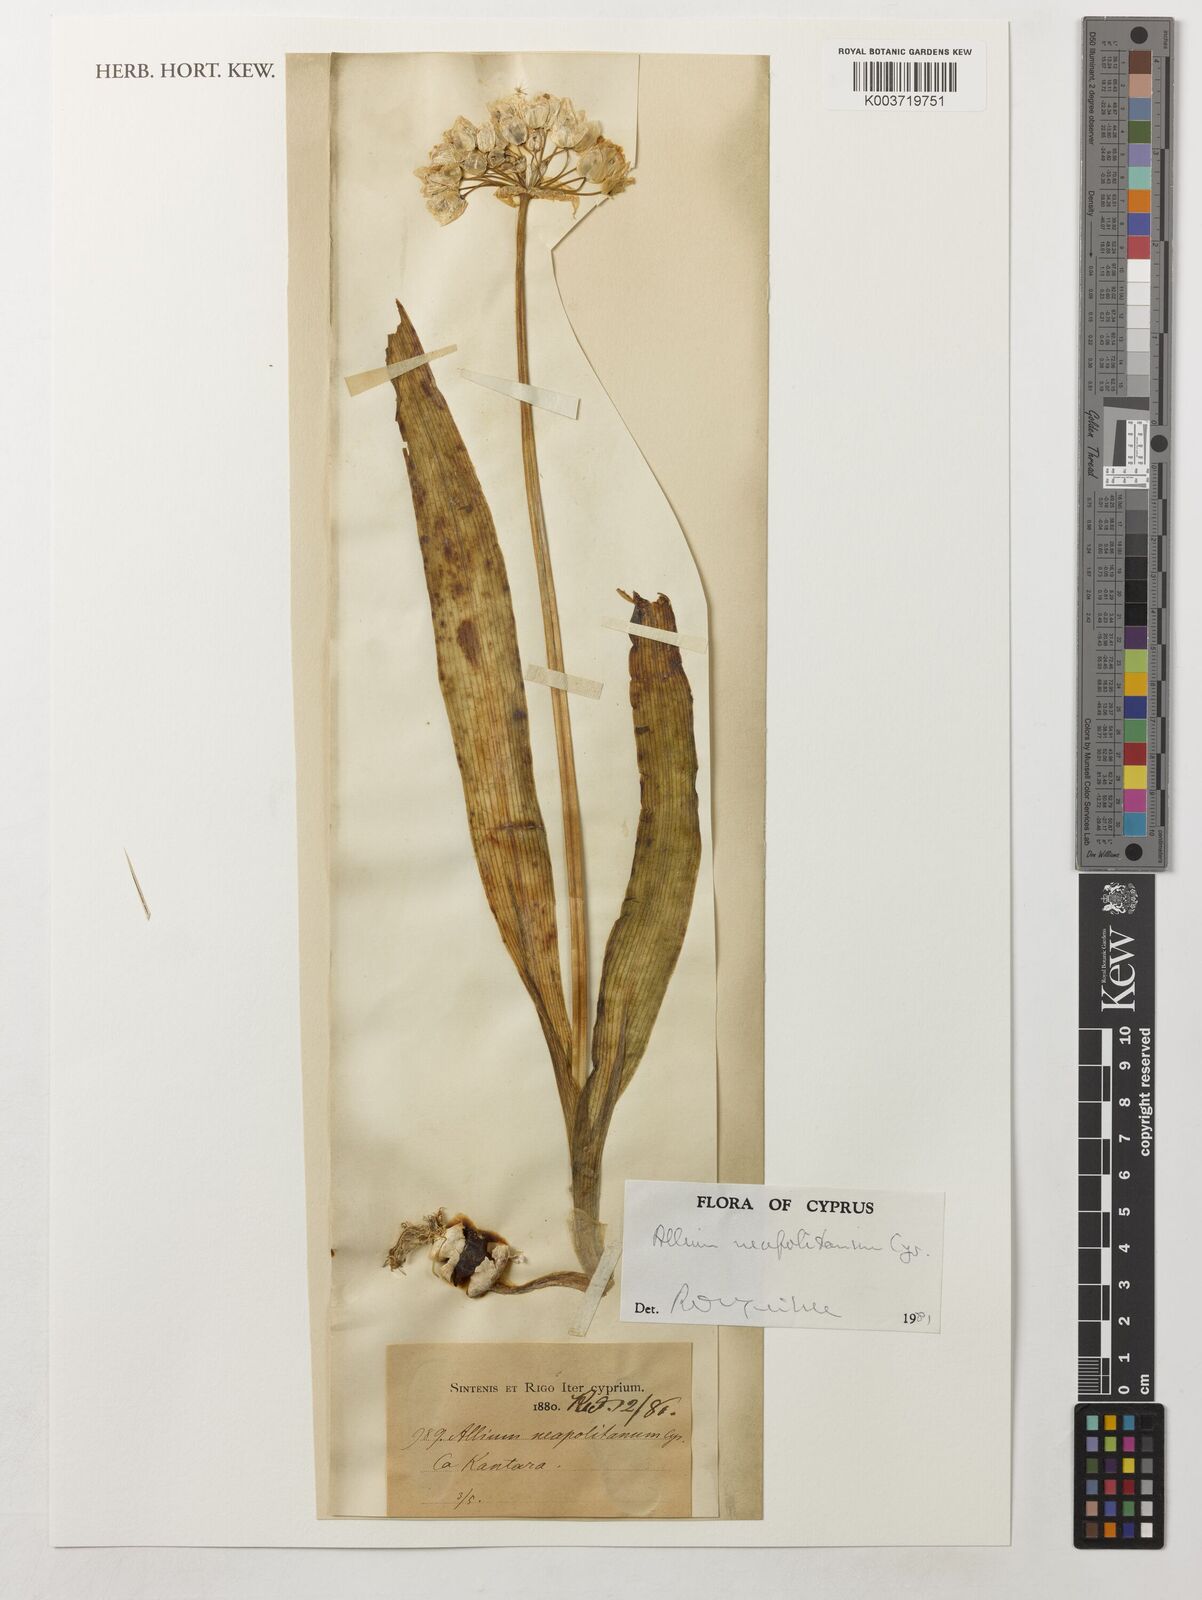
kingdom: Plantae
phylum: Tracheophyta
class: Liliopsida
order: Asparagales
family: Amaryllidaceae
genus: Allium
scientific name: Allium neapolitanum
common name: Neapolitan garlic
